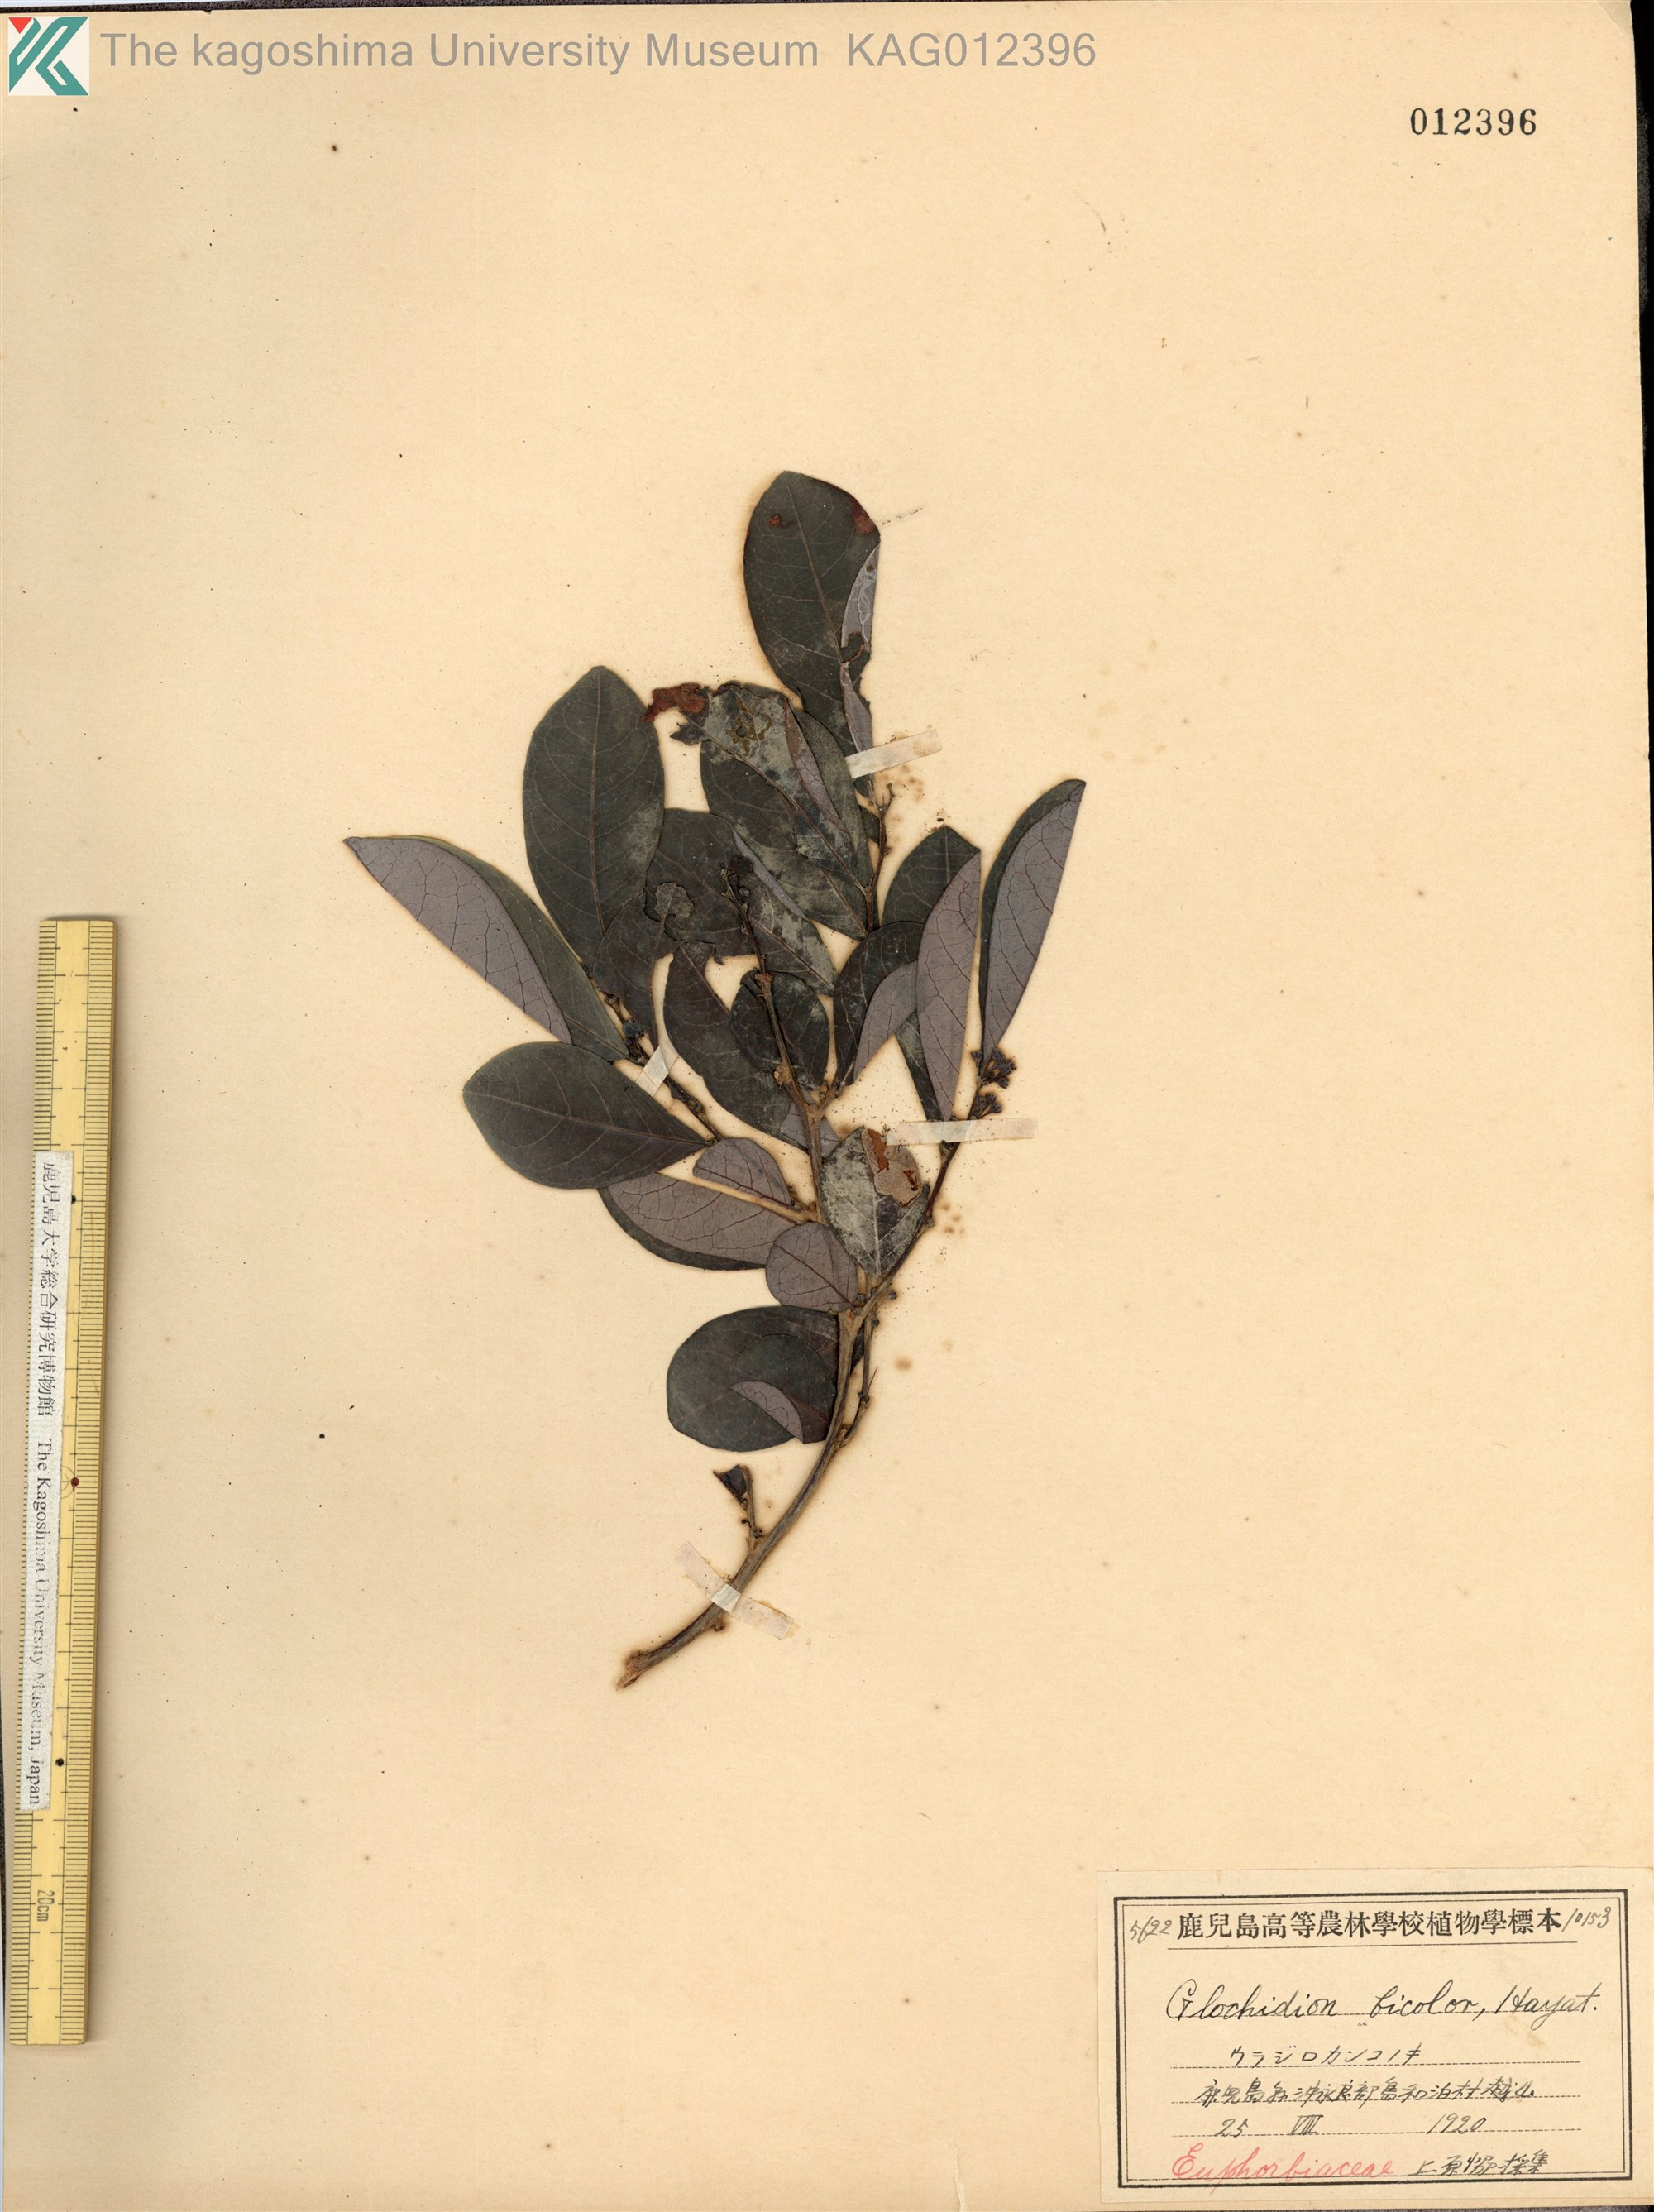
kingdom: Plantae
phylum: Tracheophyta
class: Magnoliopsida
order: Malpighiales
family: Phyllanthaceae
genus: Glochidion
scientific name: Glochidion obovatum
